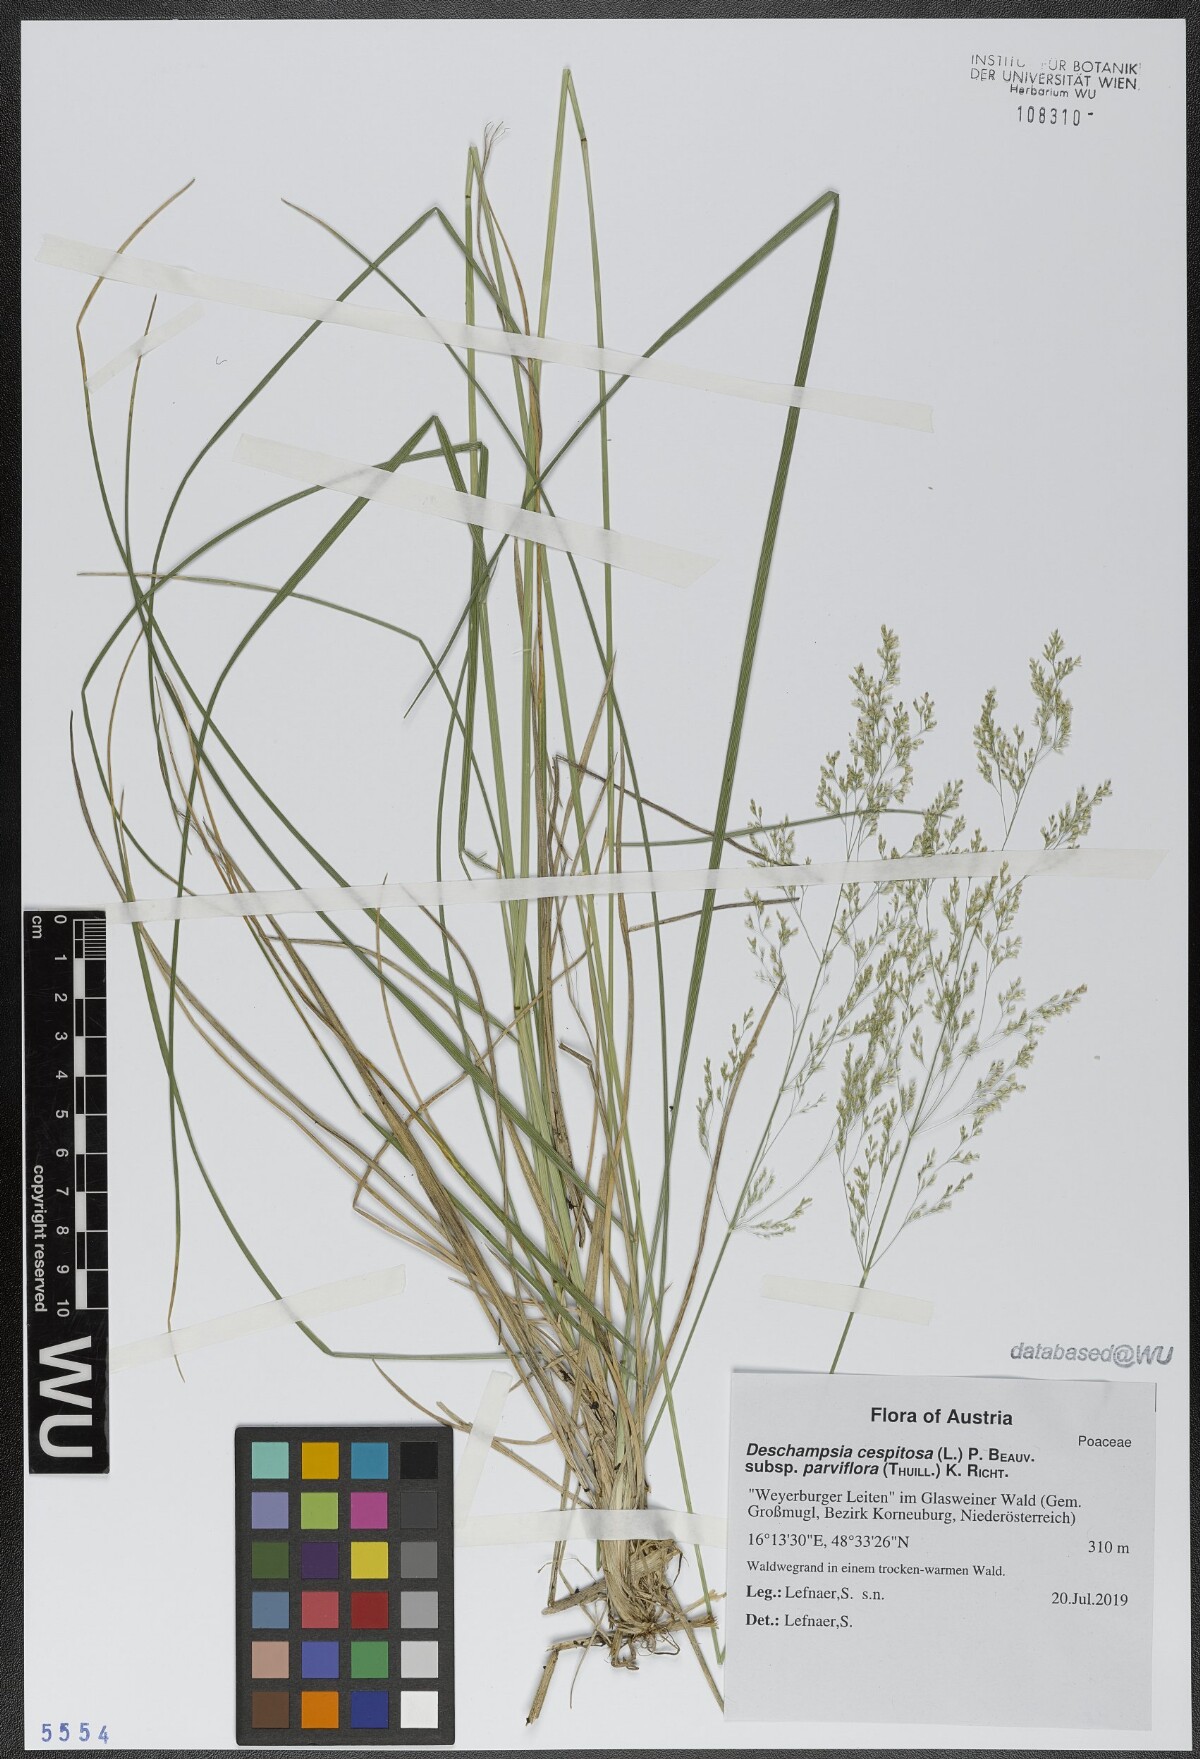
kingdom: Plantae
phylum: Tracheophyta
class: Liliopsida
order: Poales
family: Poaceae
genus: Deschampsia
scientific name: Deschampsia cespitosa
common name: Tufted hair-grass
